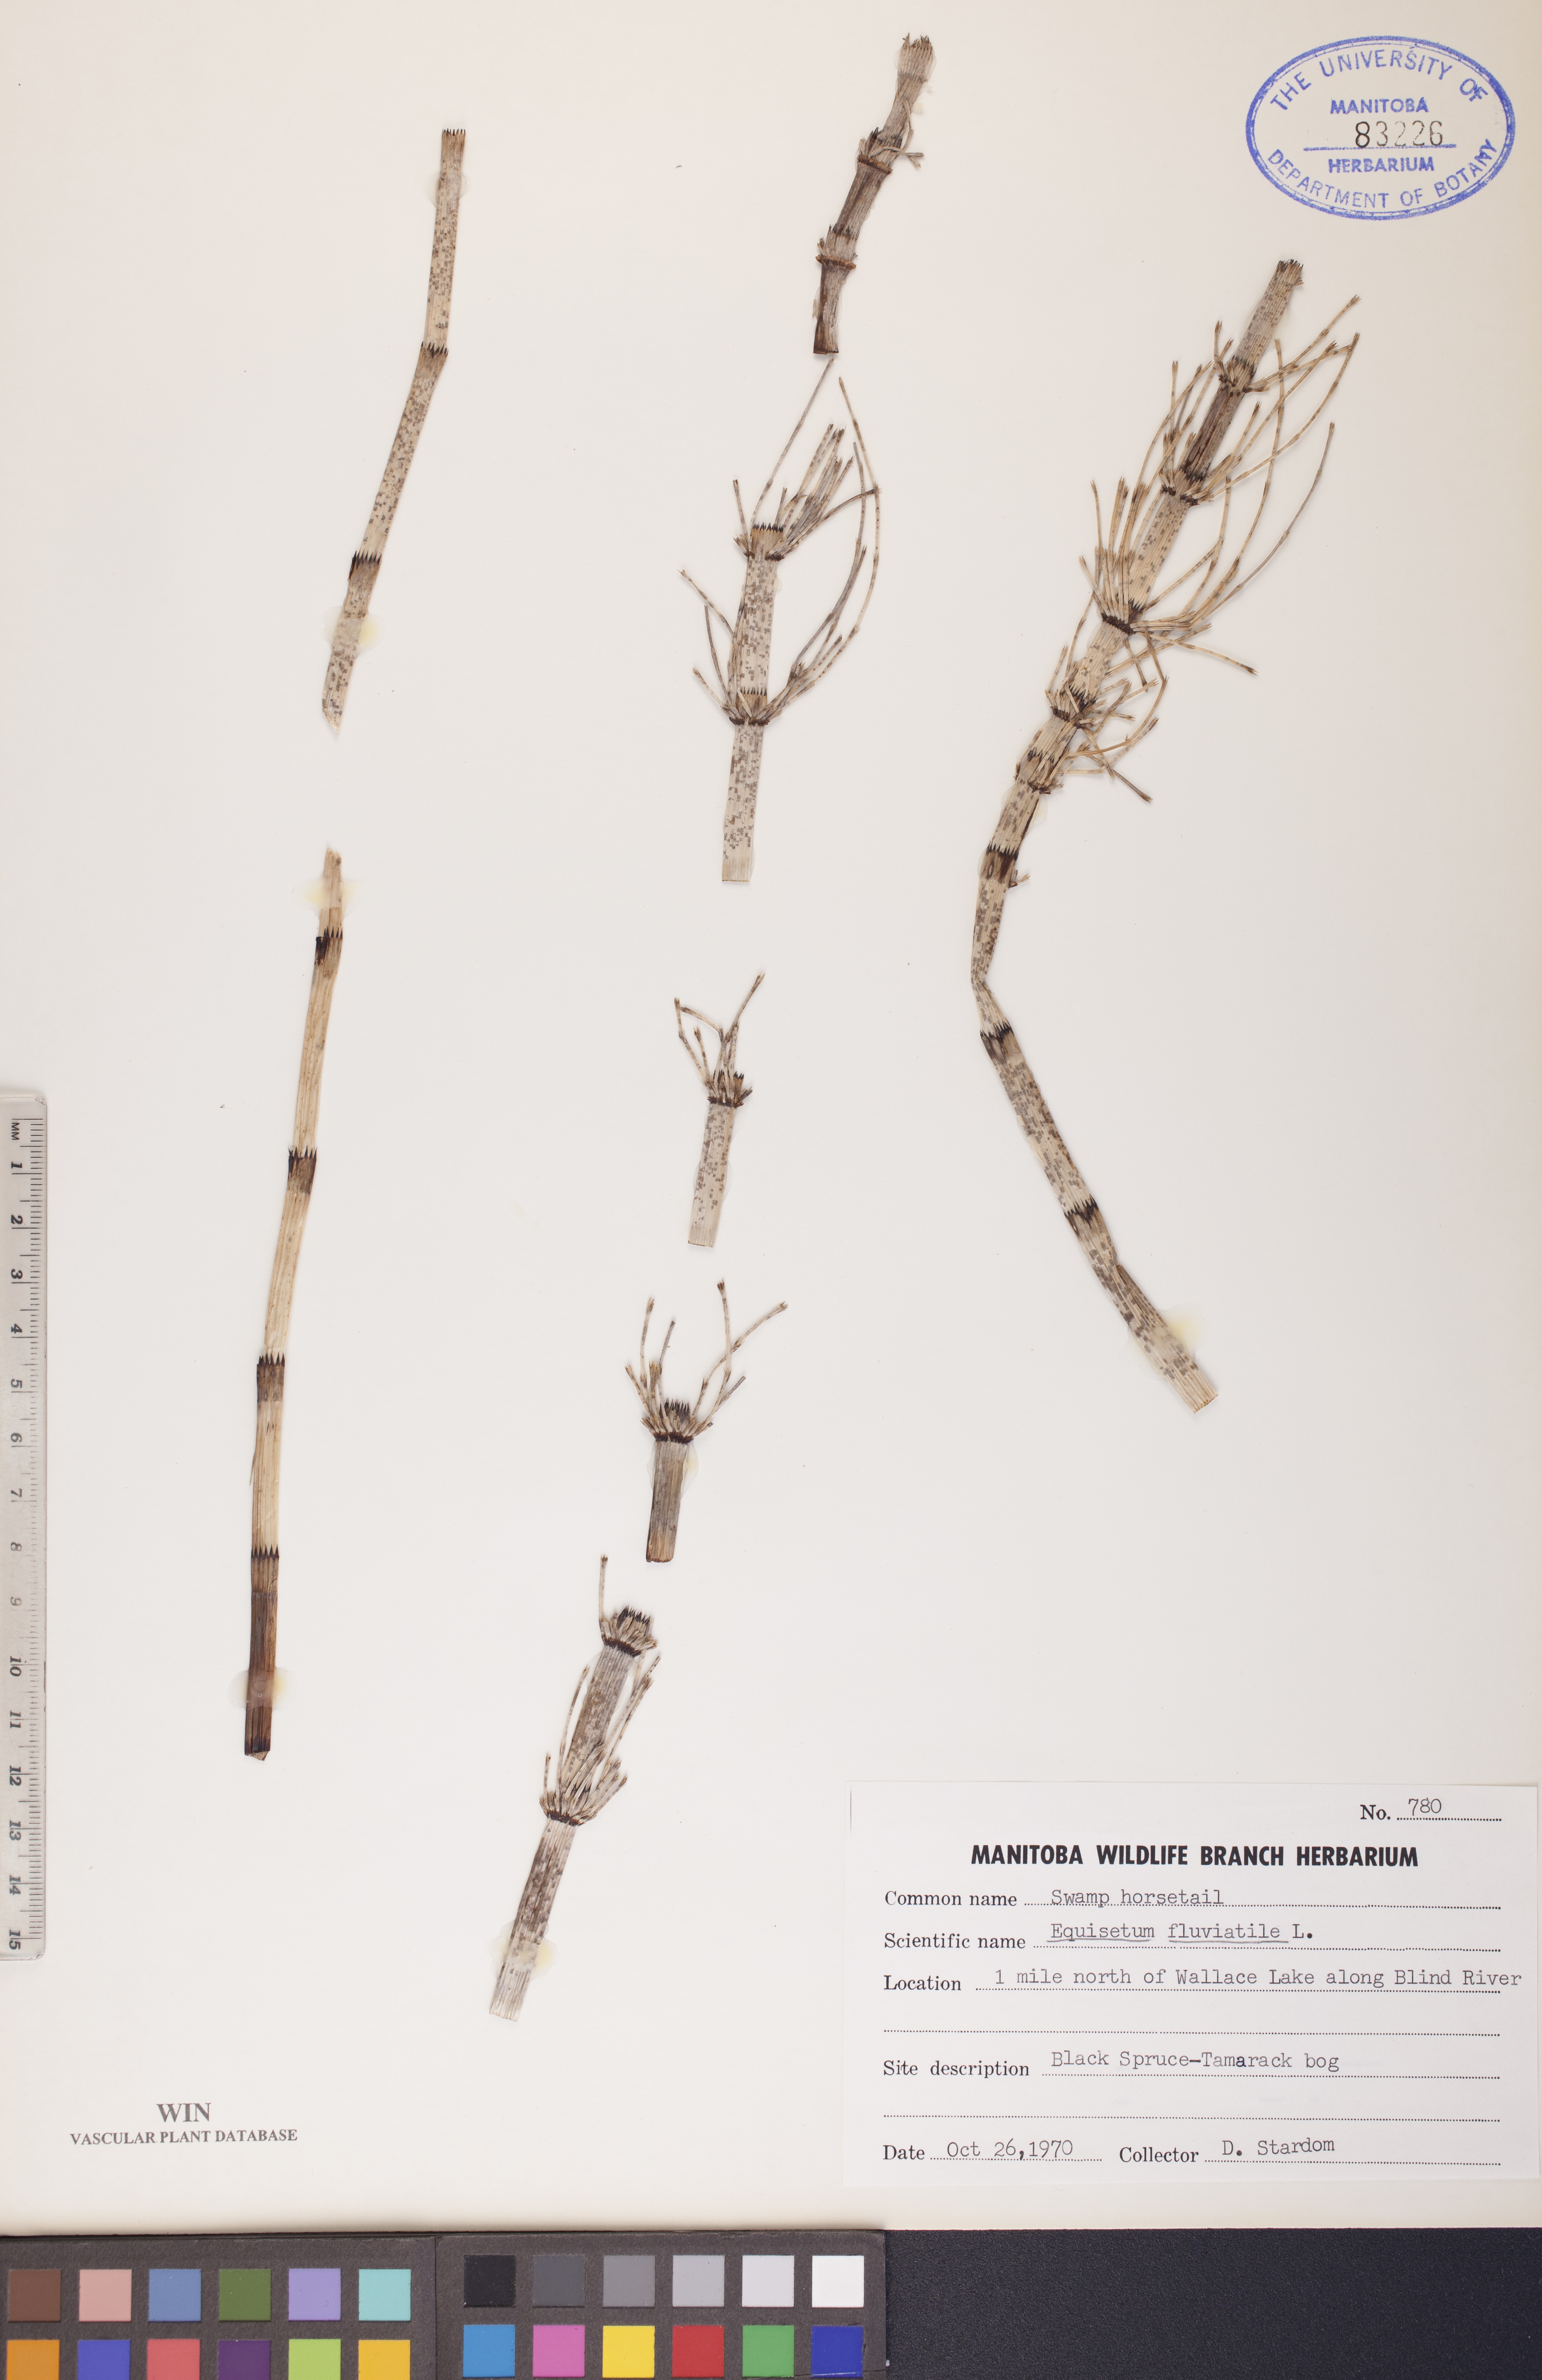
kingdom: Plantae
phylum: Tracheophyta
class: Polypodiopsida
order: Equisetales
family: Equisetaceae
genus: Equisetum
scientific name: Equisetum fluviatile
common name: Water horsetail
